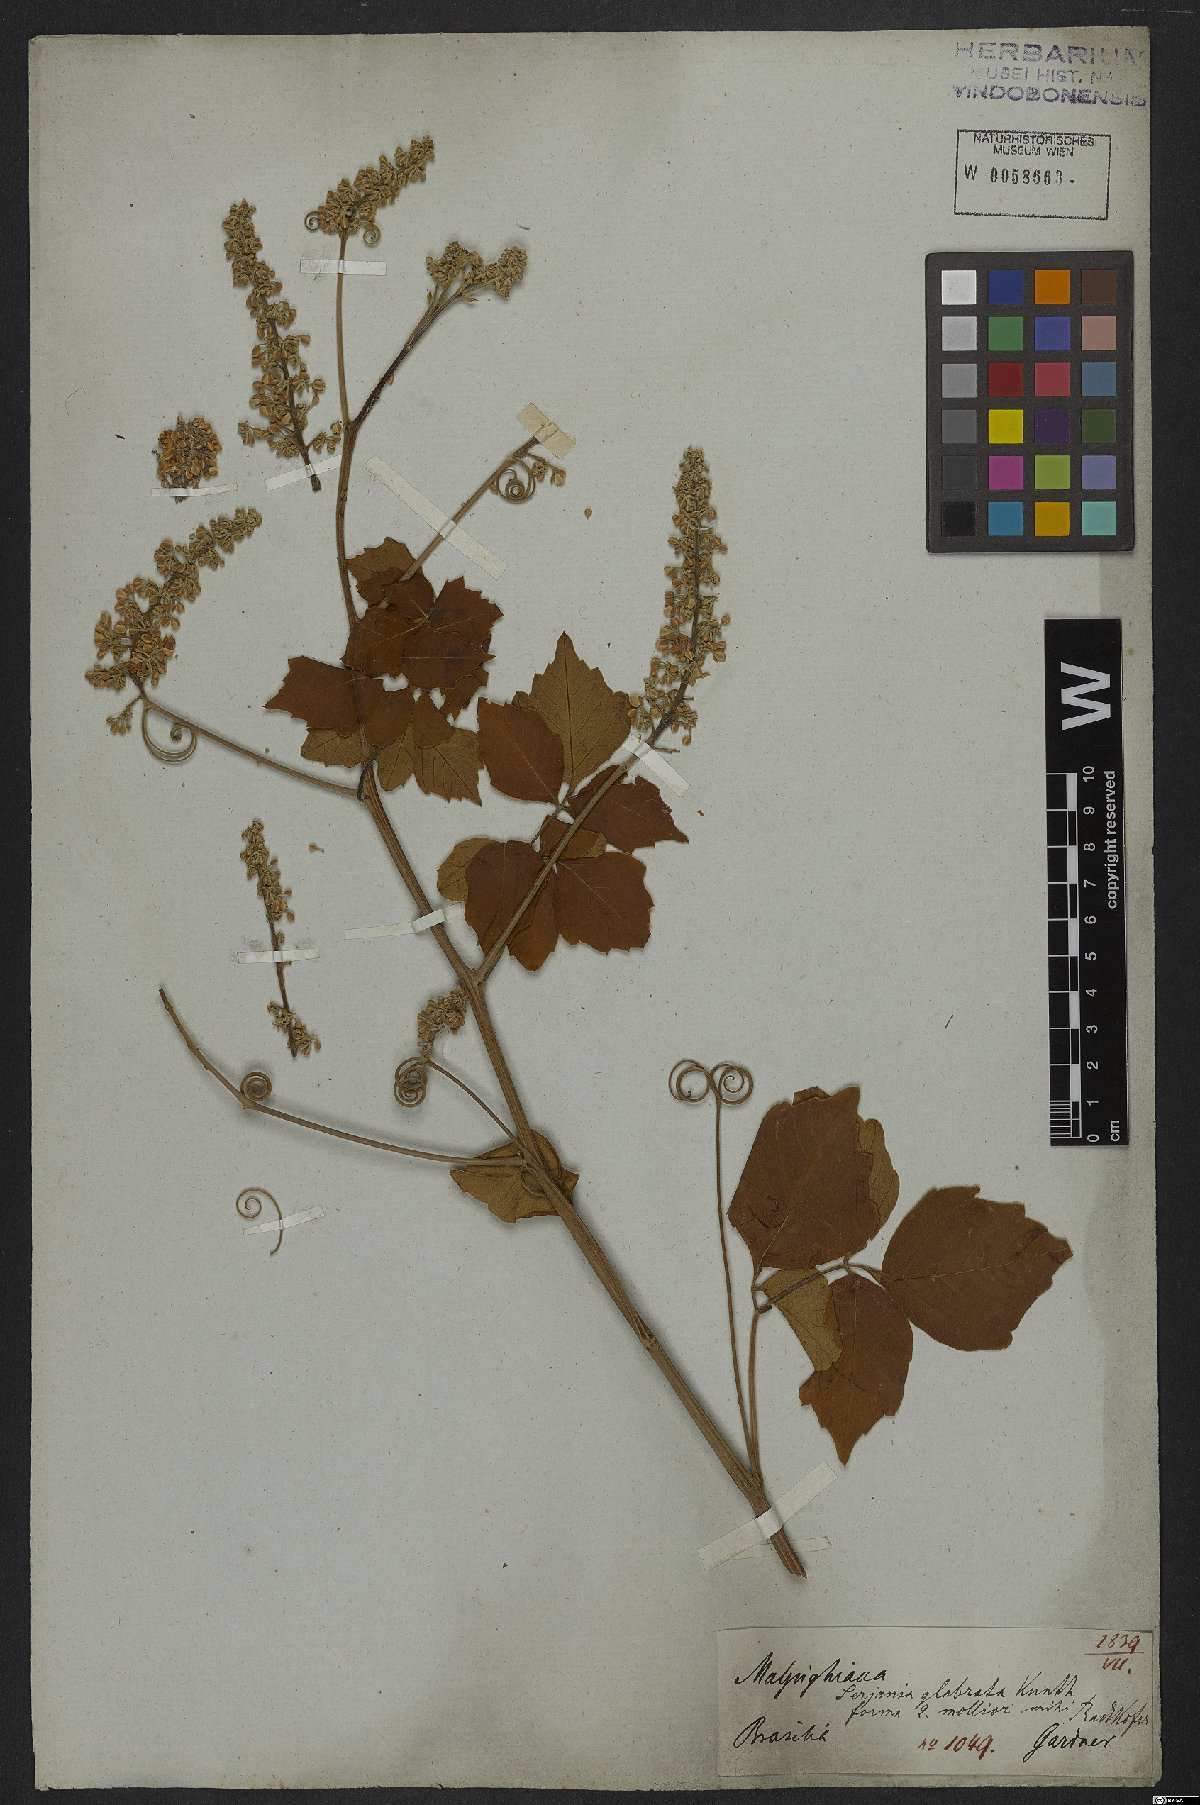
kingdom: Plantae
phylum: Tracheophyta
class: Magnoliopsida
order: Sapindales
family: Sapindaceae
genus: Serjania
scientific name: Serjania glabrata
